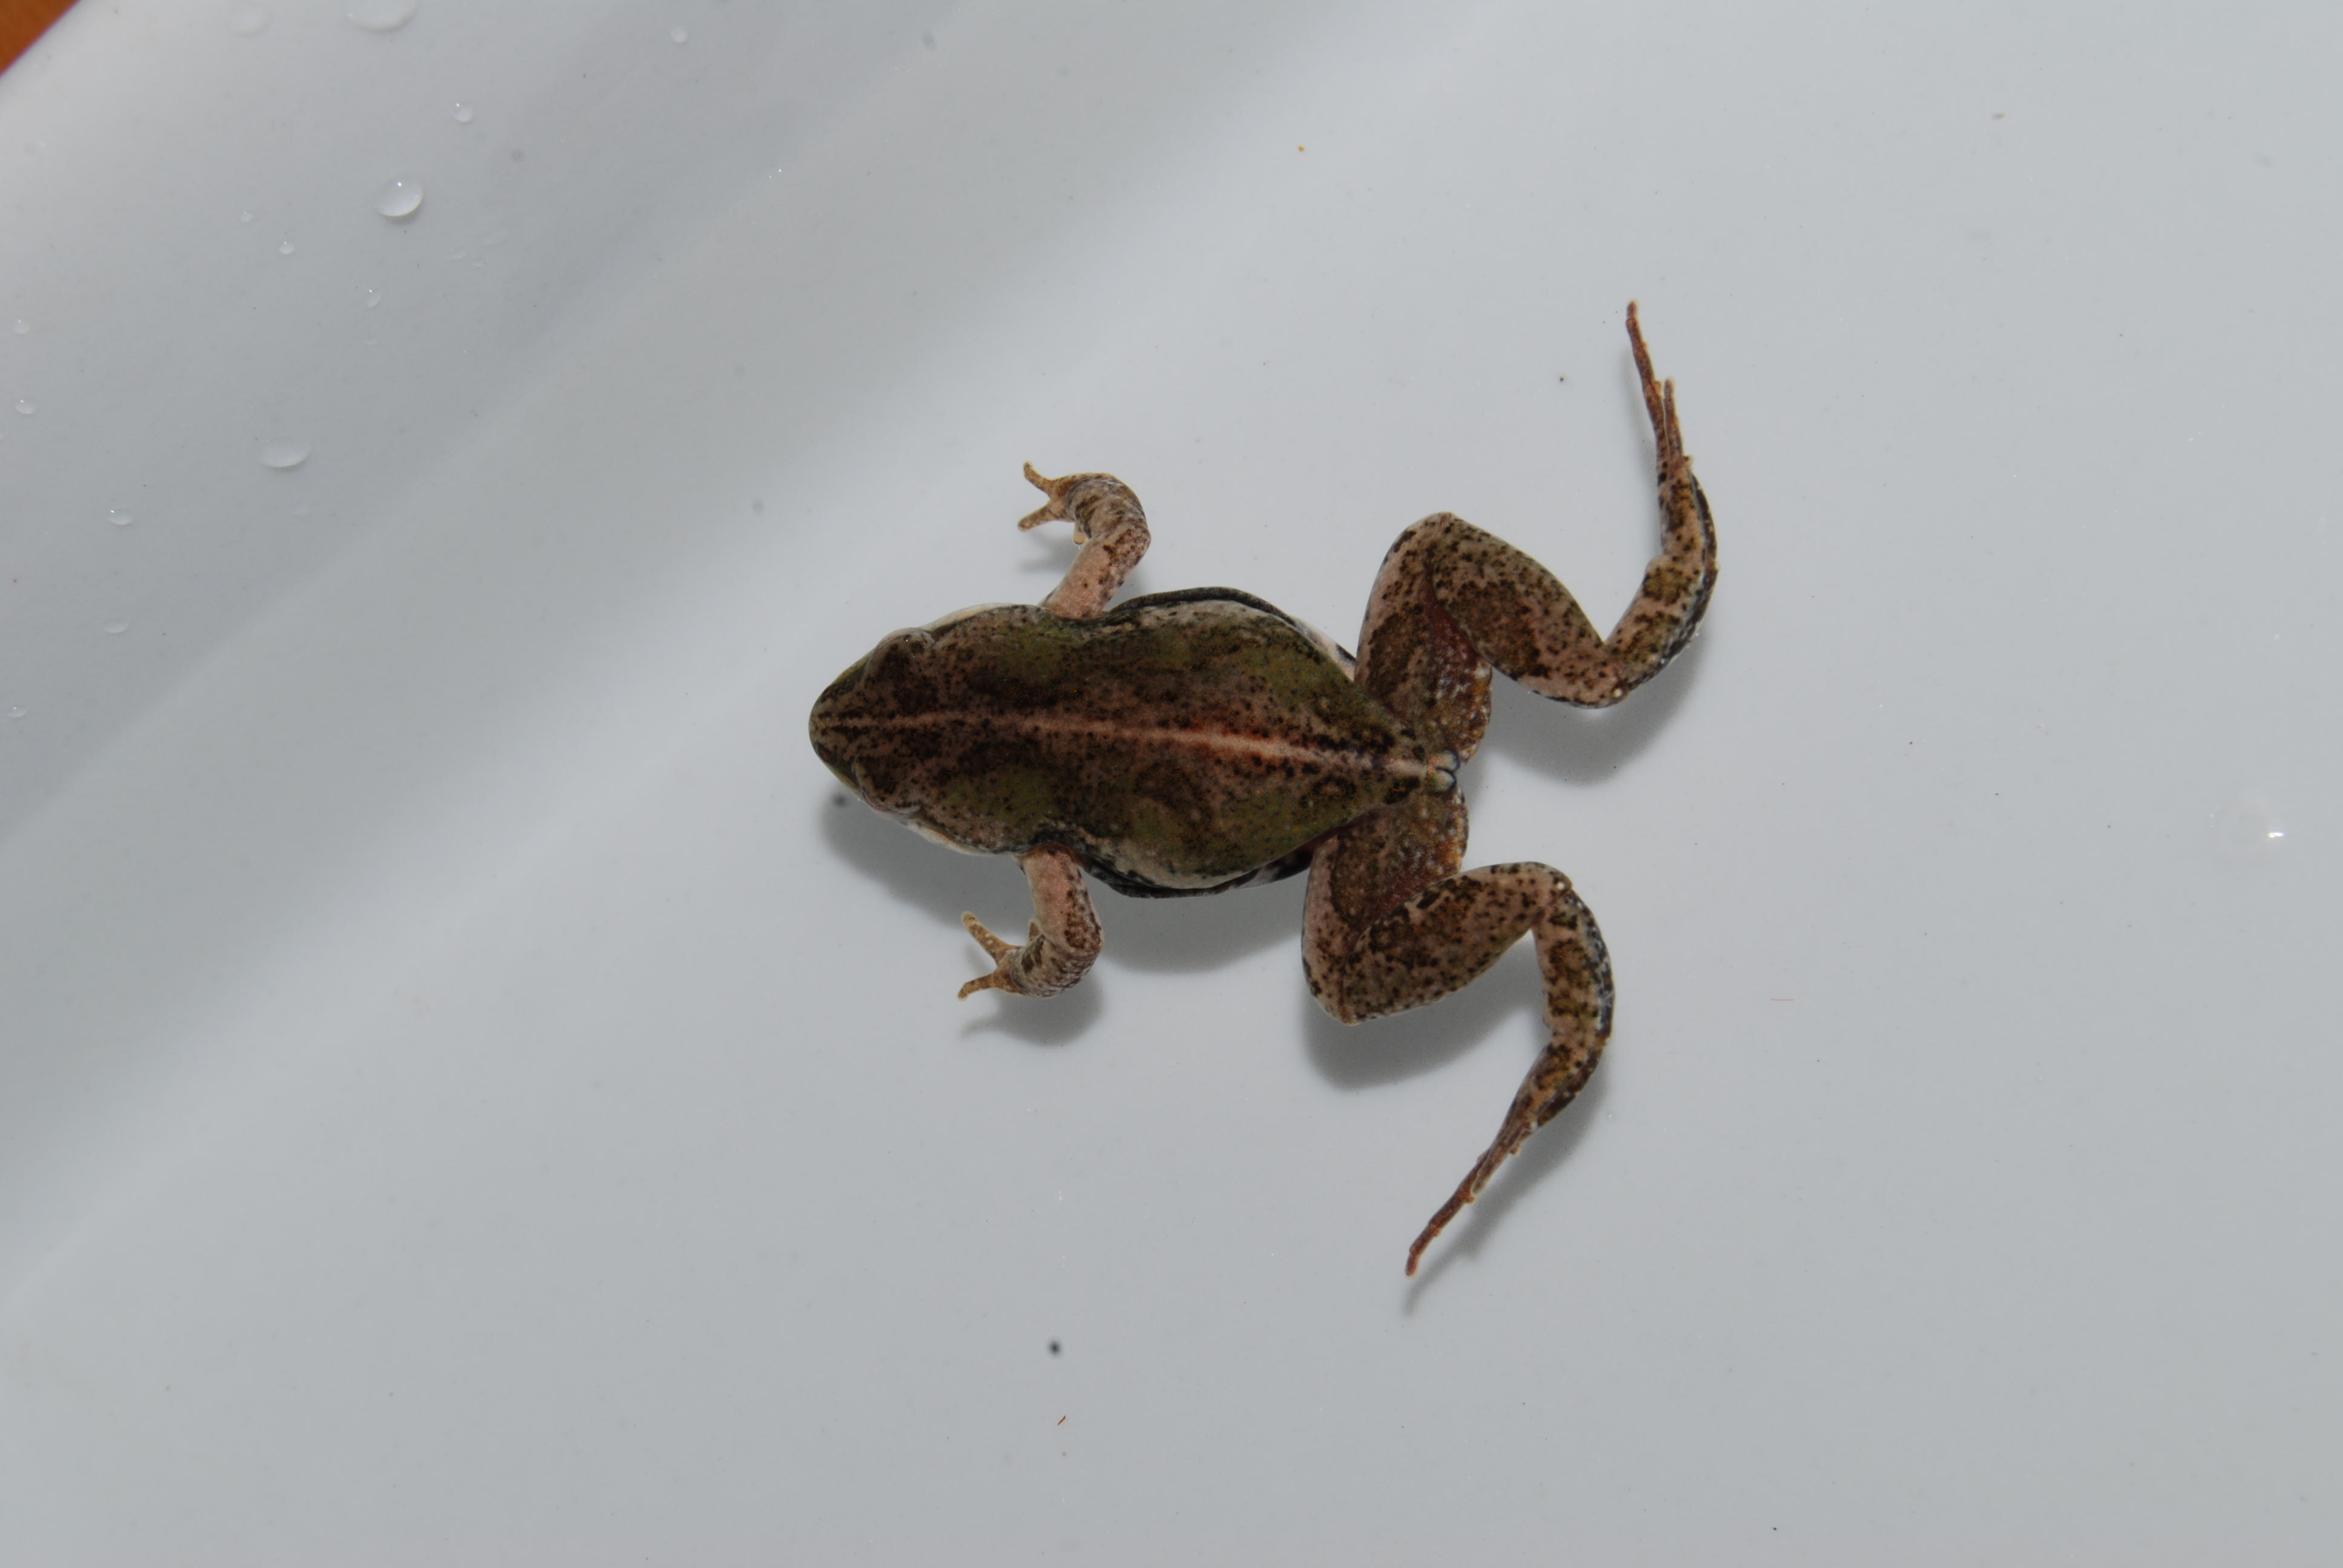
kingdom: Animalia
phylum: Chordata
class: Amphibia
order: Anura
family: Pyxicephalidae
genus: Cacosternum
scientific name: Cacosternum boettgeri
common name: Boettger's frog
